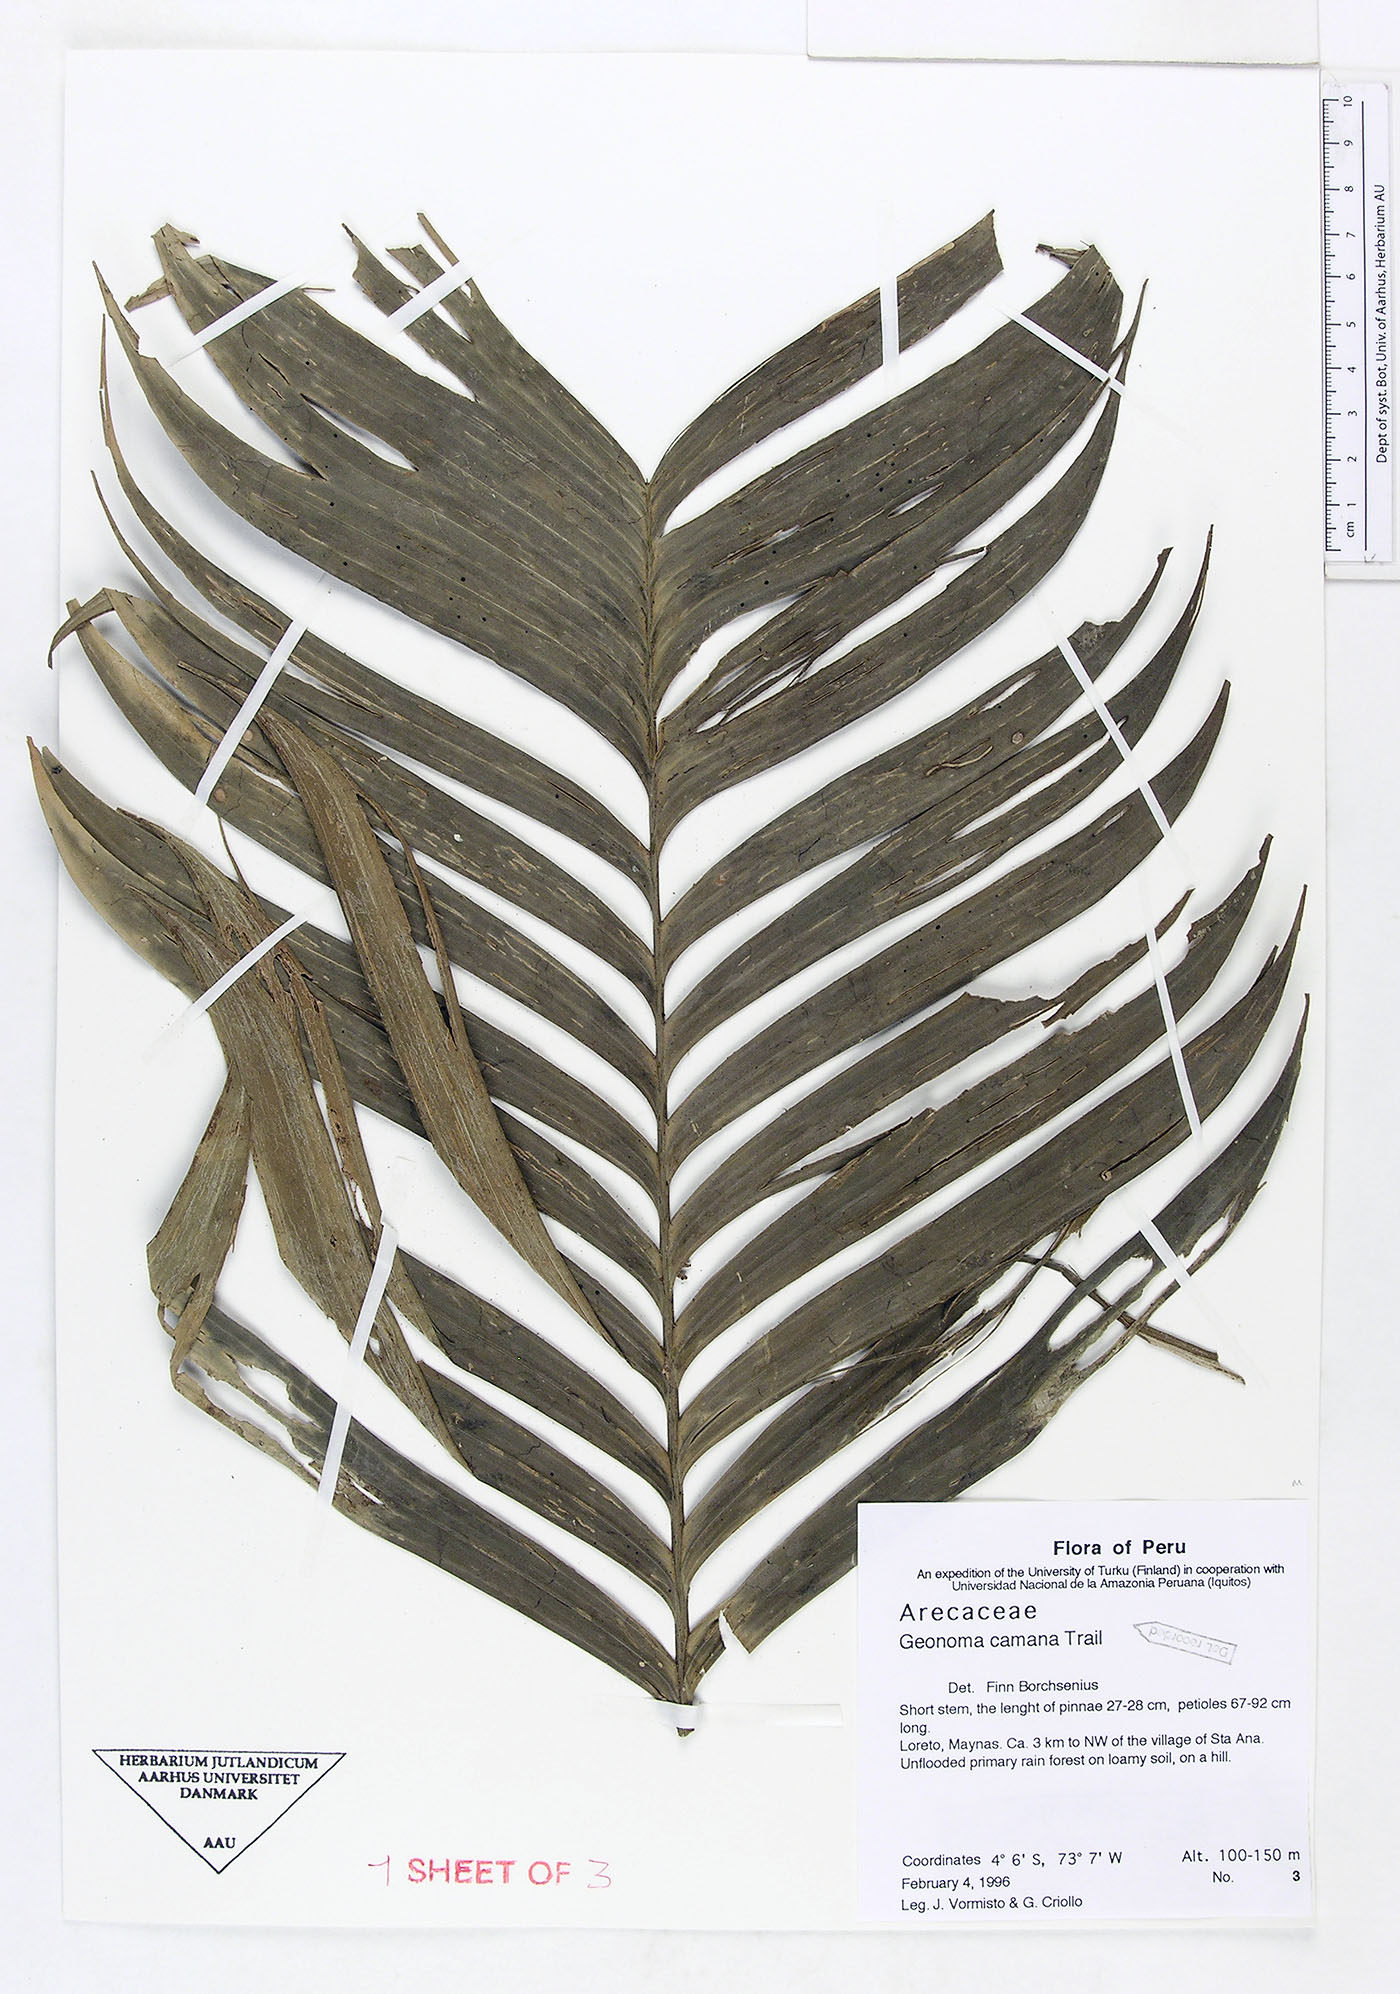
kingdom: Plantae
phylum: Tracheophyta
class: Liliopsida
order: Arecales
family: Arecaceae
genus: Geonoma
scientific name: Geonoma camana
